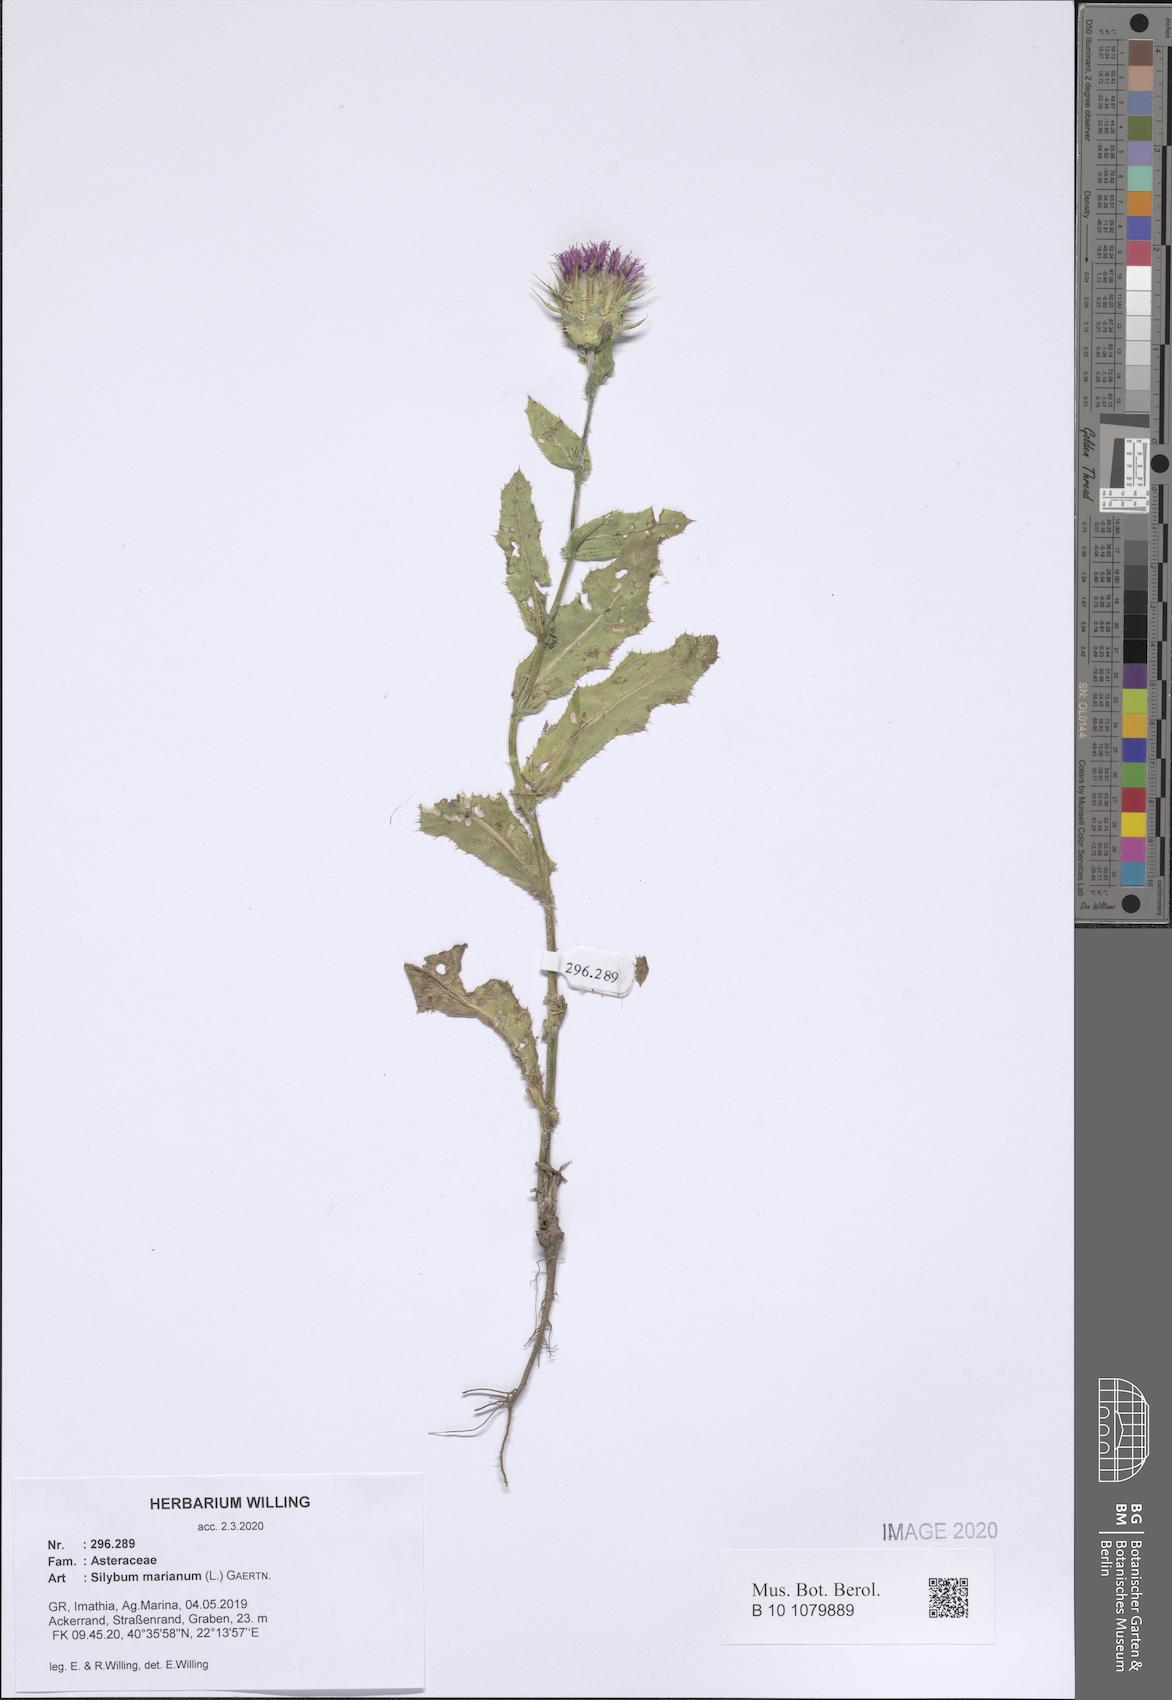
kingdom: Plantae
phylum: Tracheophyta
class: Magnoliopsida
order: Asterales
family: Asteraceae
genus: Silybum
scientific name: Silybum marianum
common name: Milk thistle
